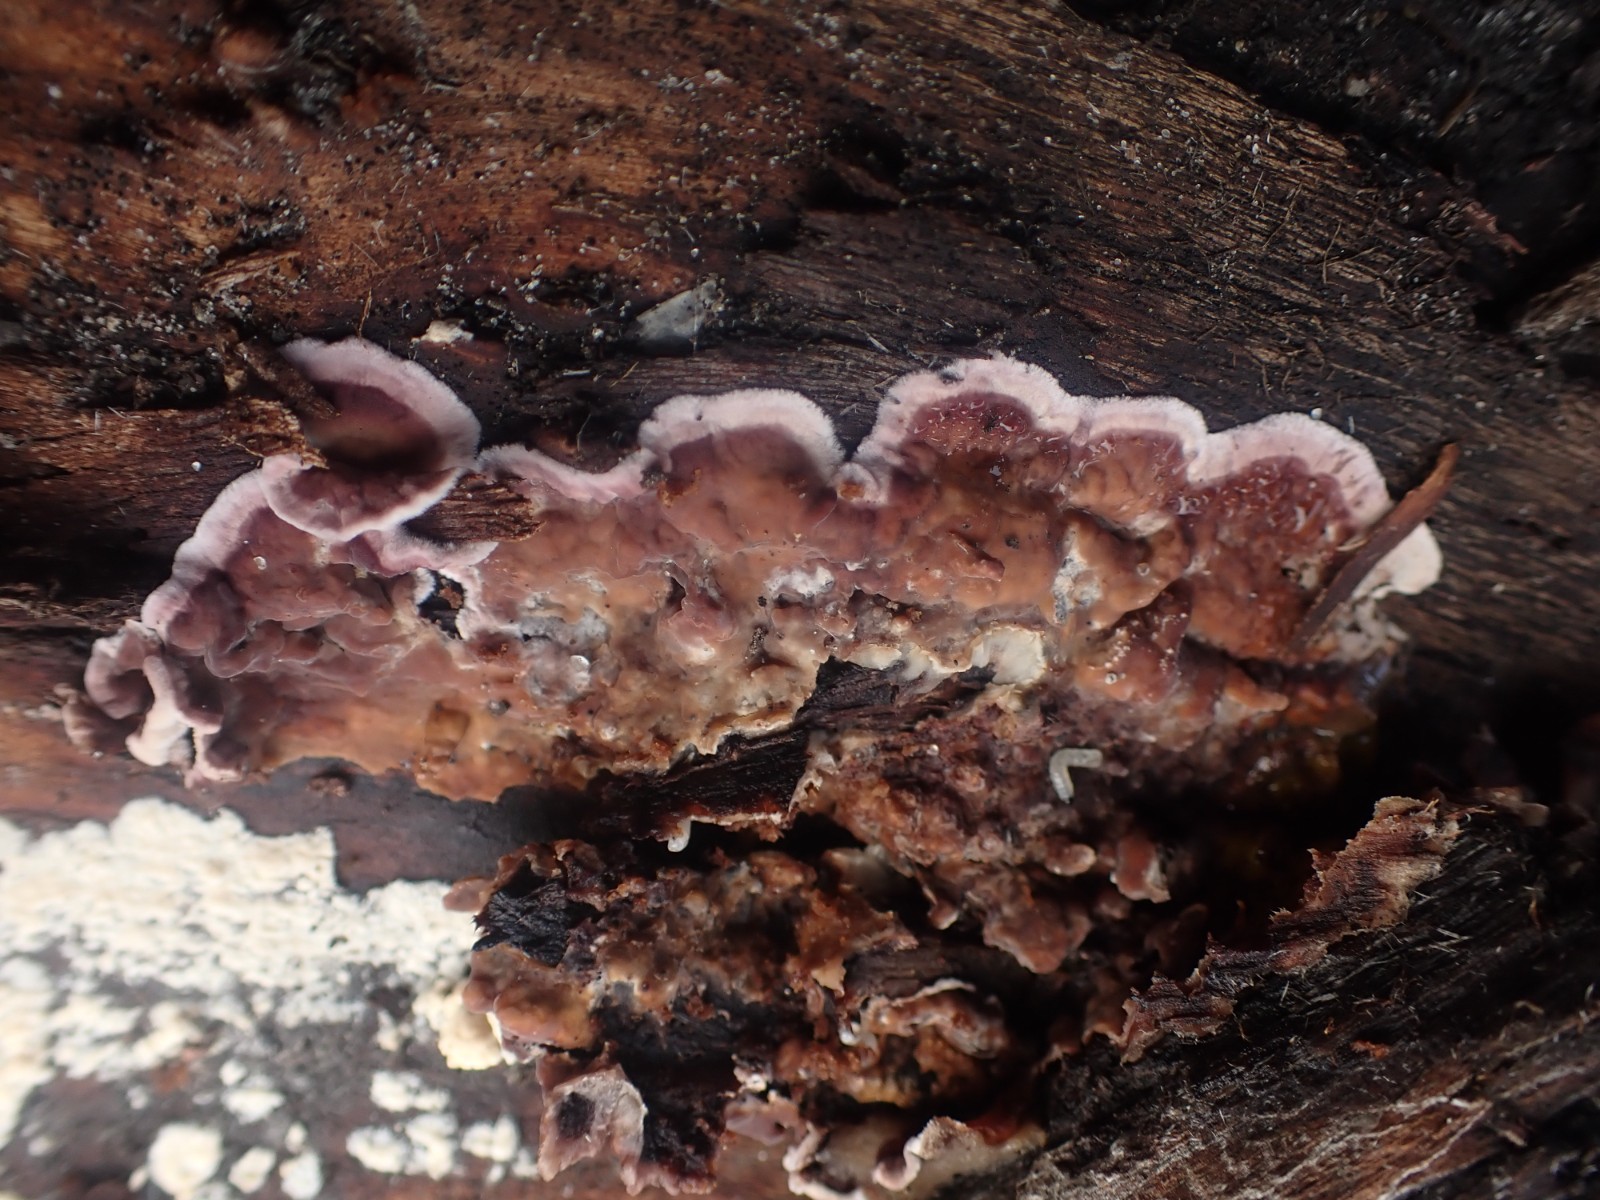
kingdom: Fungi
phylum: Basidiomycota
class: Agaricomycetes
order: Agaricales
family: Cyphellaceae
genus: Chondrostereum
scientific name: Chondrostereum purpureum
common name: purpurlædersvamp
